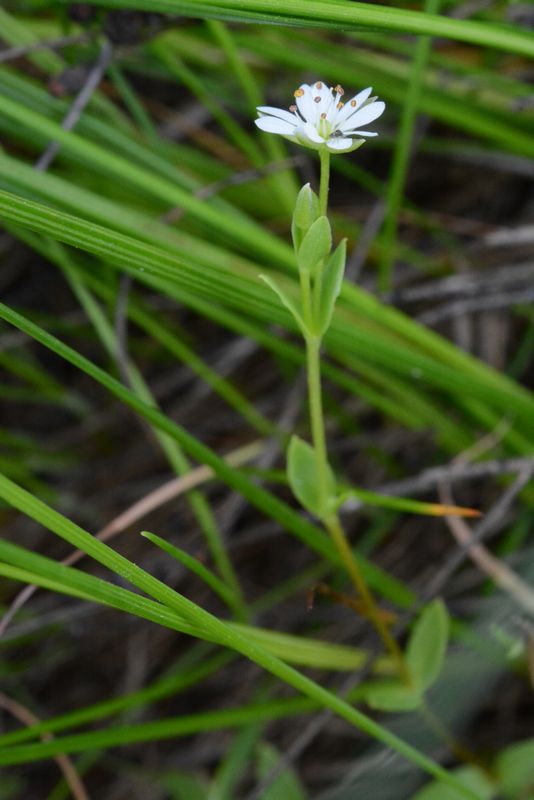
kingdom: Plantae
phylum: Tracheophyta
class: Magnoliopsida
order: Caryophyllales
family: Caryophyllaceae
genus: Stellaria
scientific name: Stellaria humifusa
